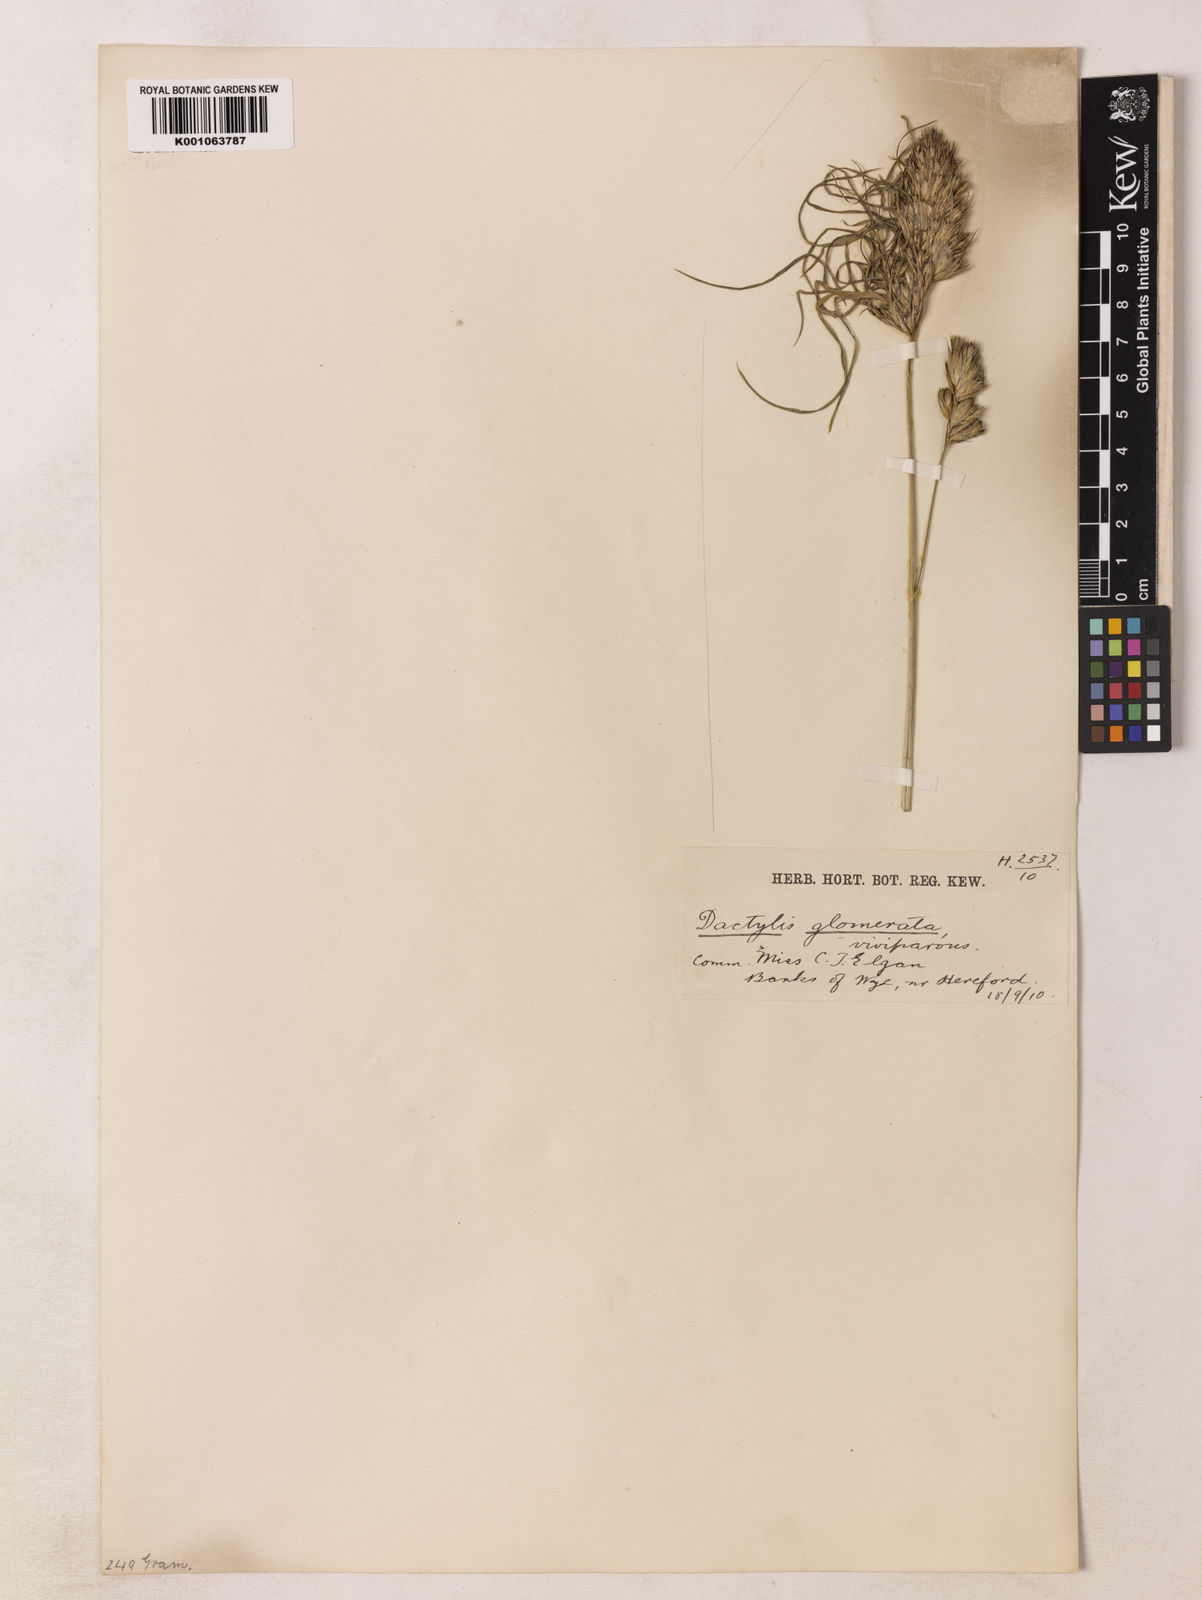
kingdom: Plantae
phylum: Tracheophyta
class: Liliopsida
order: Poales
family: Poaceae
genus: Dactylis
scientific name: Dactylis glomerata
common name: Orchardgrass
